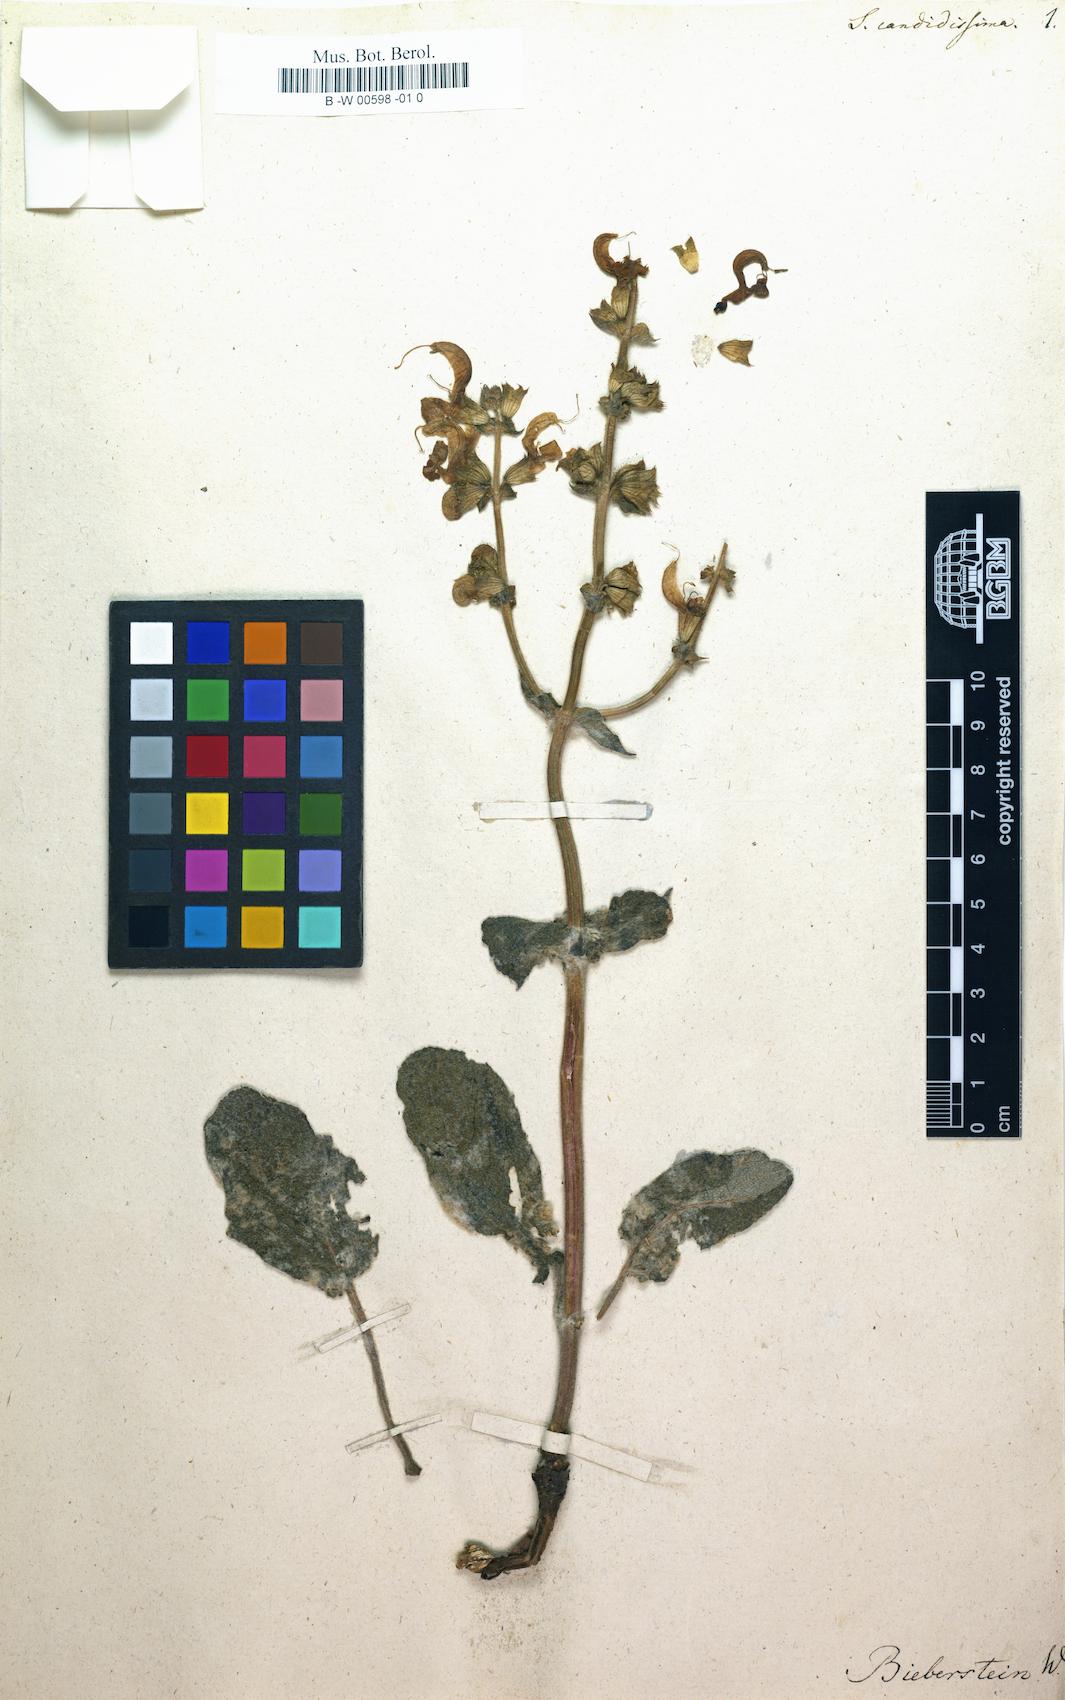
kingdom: Plantae
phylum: Tracheophyta
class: Magnoliopsida
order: Lamiales
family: Lamiaceae
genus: Salvia
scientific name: Salvia candidissima
